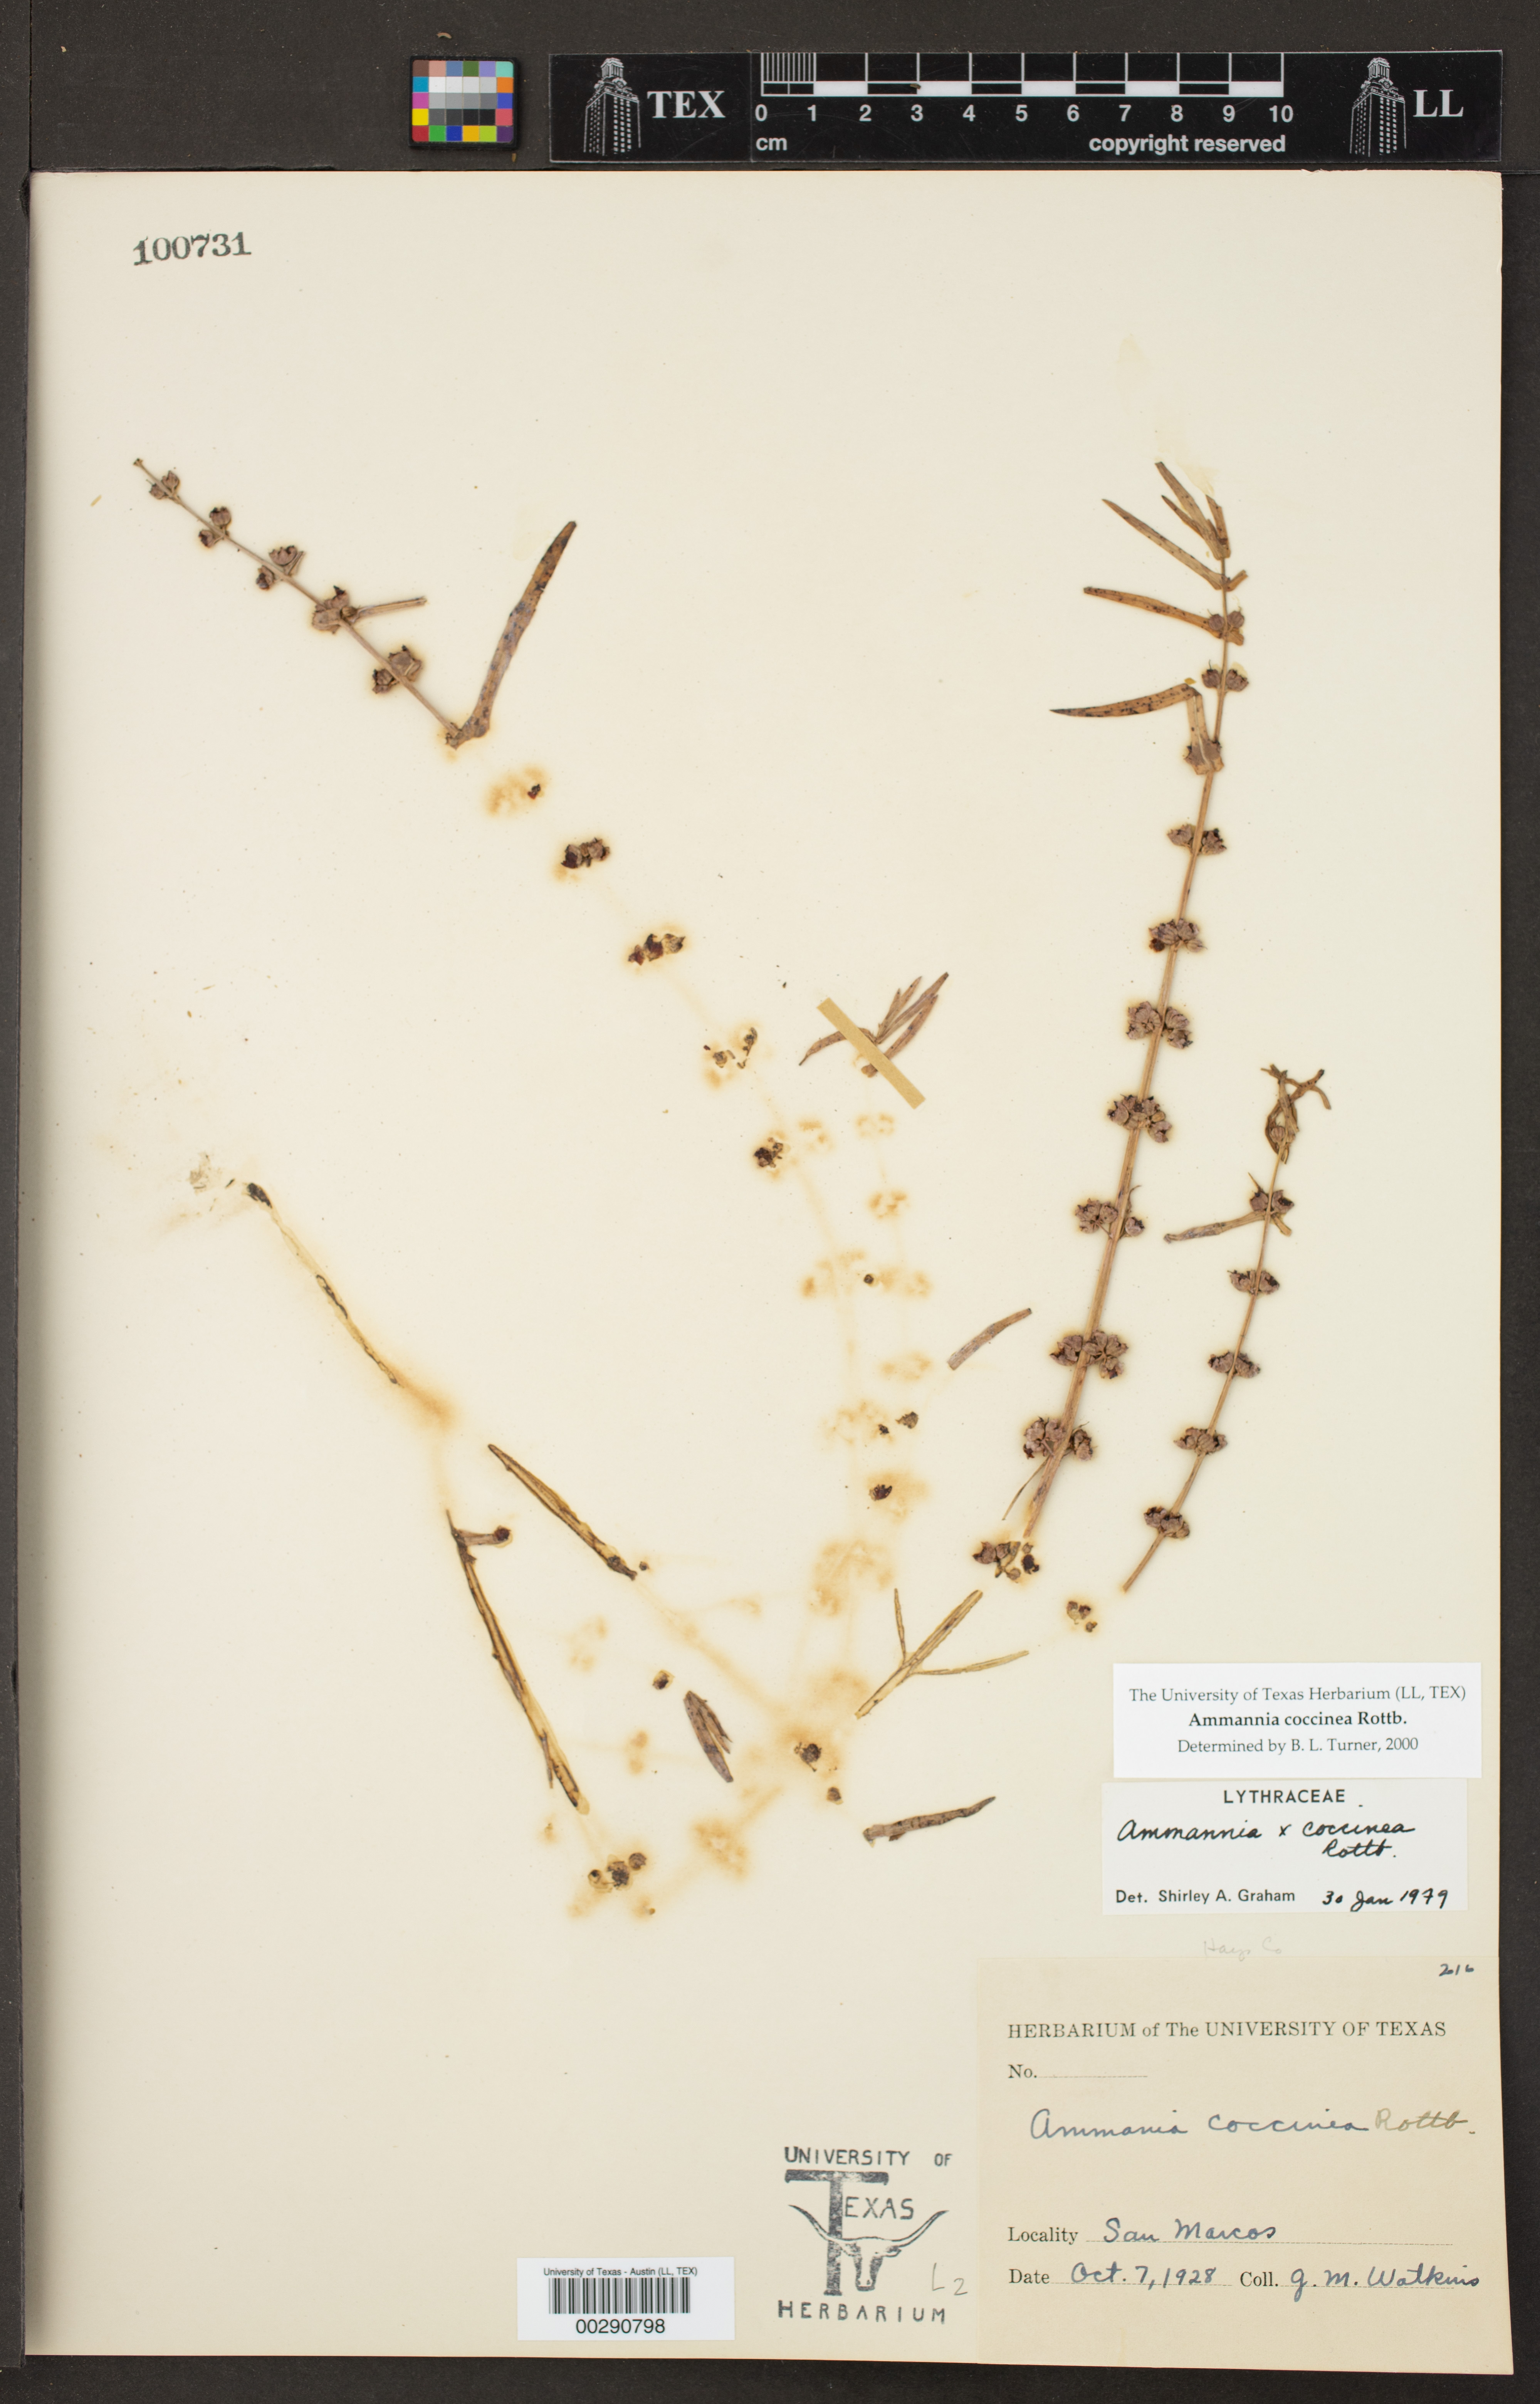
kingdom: Plantae
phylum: Tracheophyta
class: Magnoliopsida
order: Myrtales
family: Lythraceae
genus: Ammannia
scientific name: Ammannia coccinea
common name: Valley redstem
